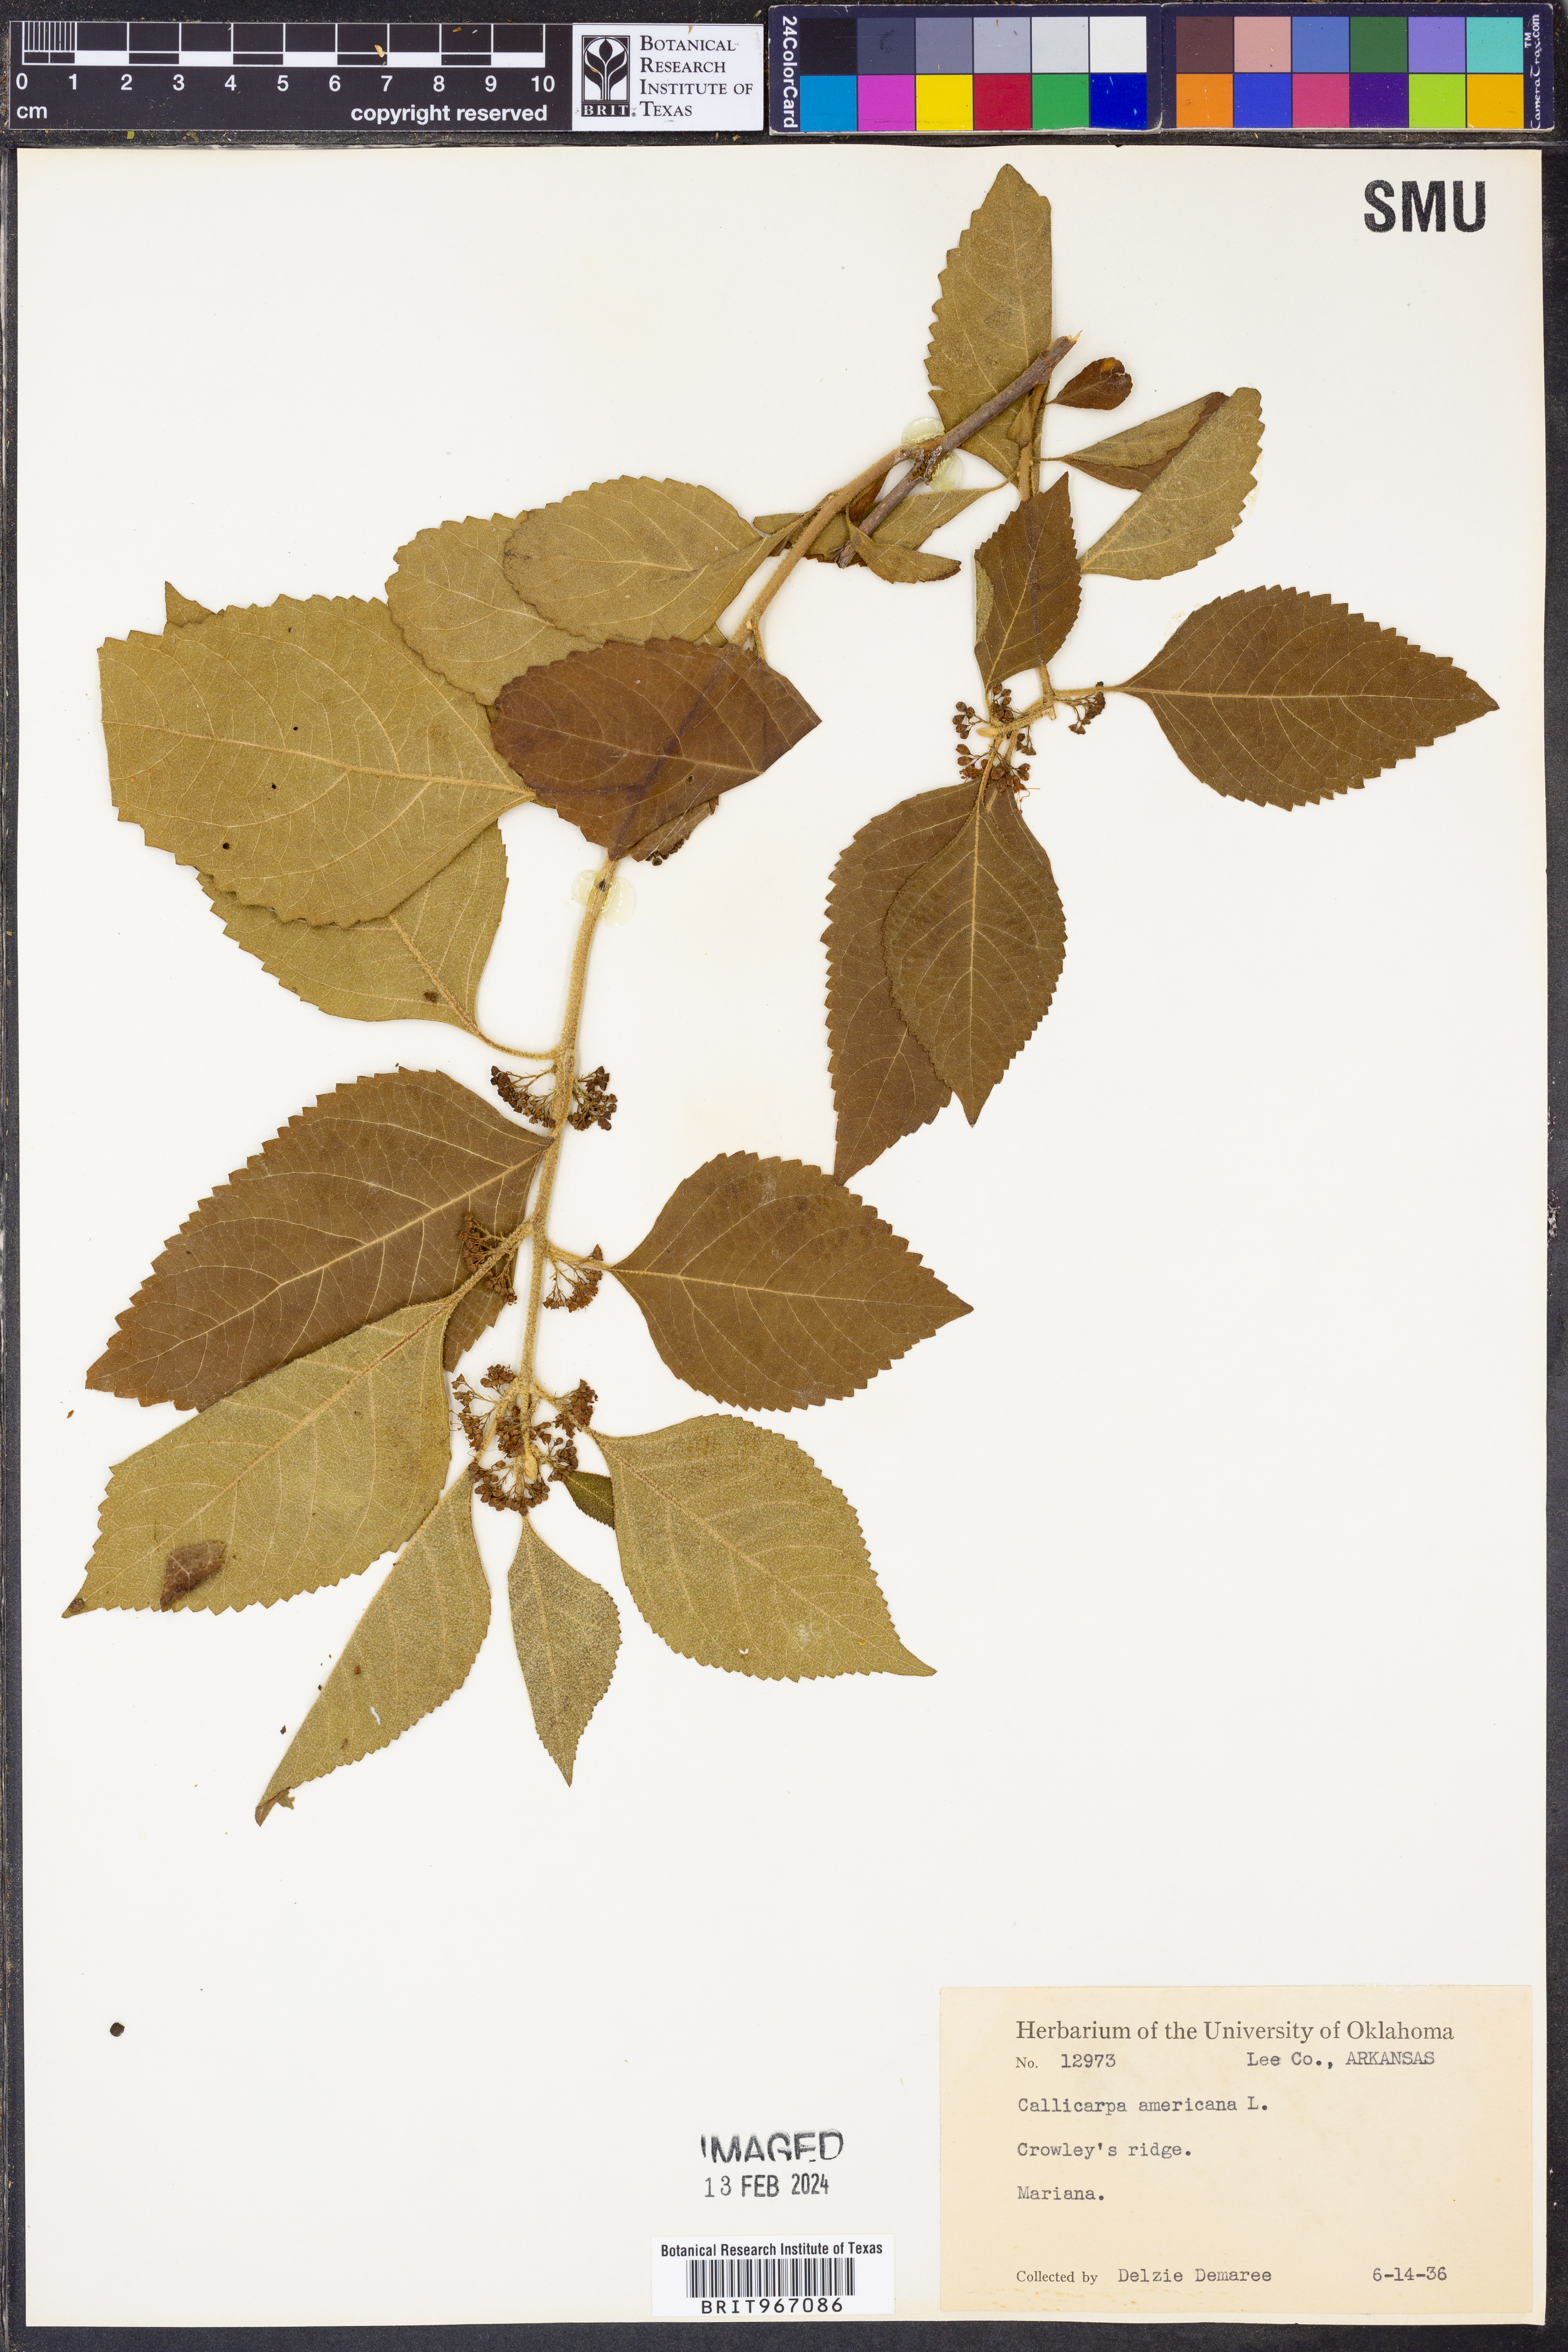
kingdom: Plantae
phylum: Tracheophyta
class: Magnoliopsida
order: Lamiales
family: Lamiaceae
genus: Callicarpa
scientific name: Callicarpa americana
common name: American beautyberry
